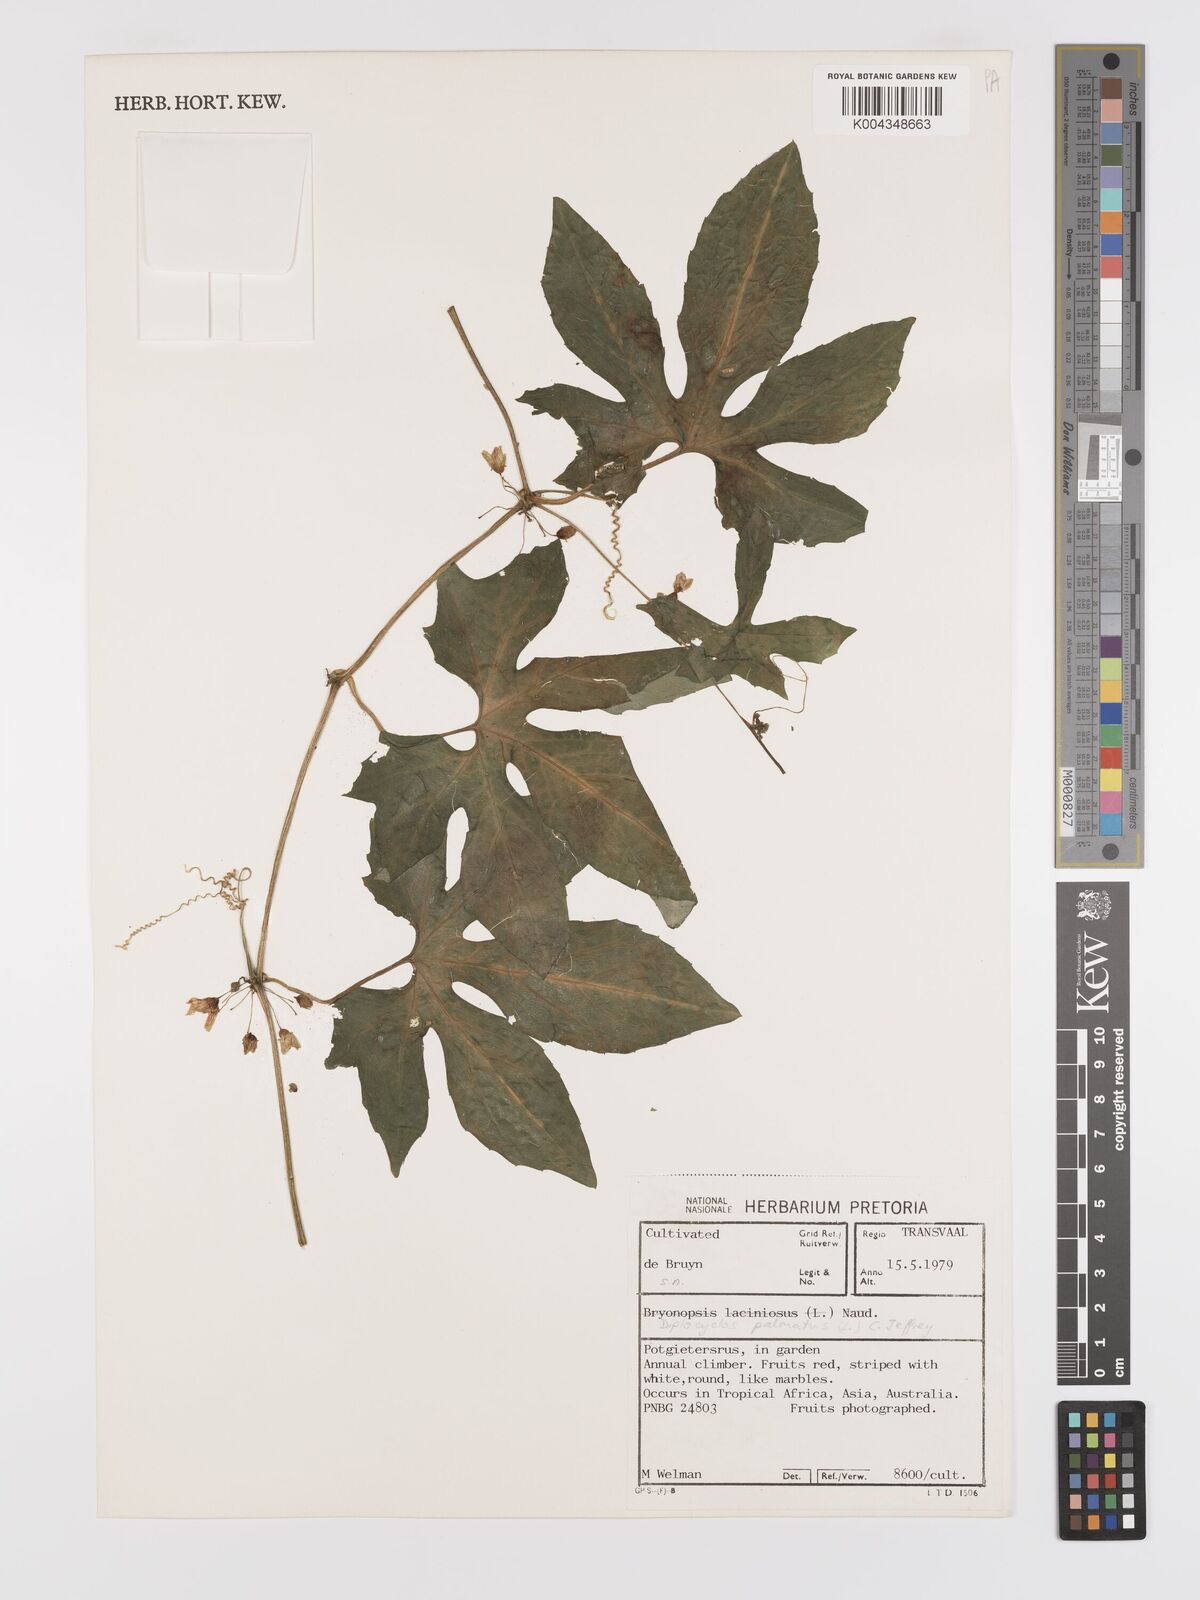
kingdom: Plantae
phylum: Tracheophyta
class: Magnoliopsida
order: Cucurbitales
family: Cucurbitaceae
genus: Diplocyclos
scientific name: Diplocyclos palmatus
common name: Striped-cucumber
